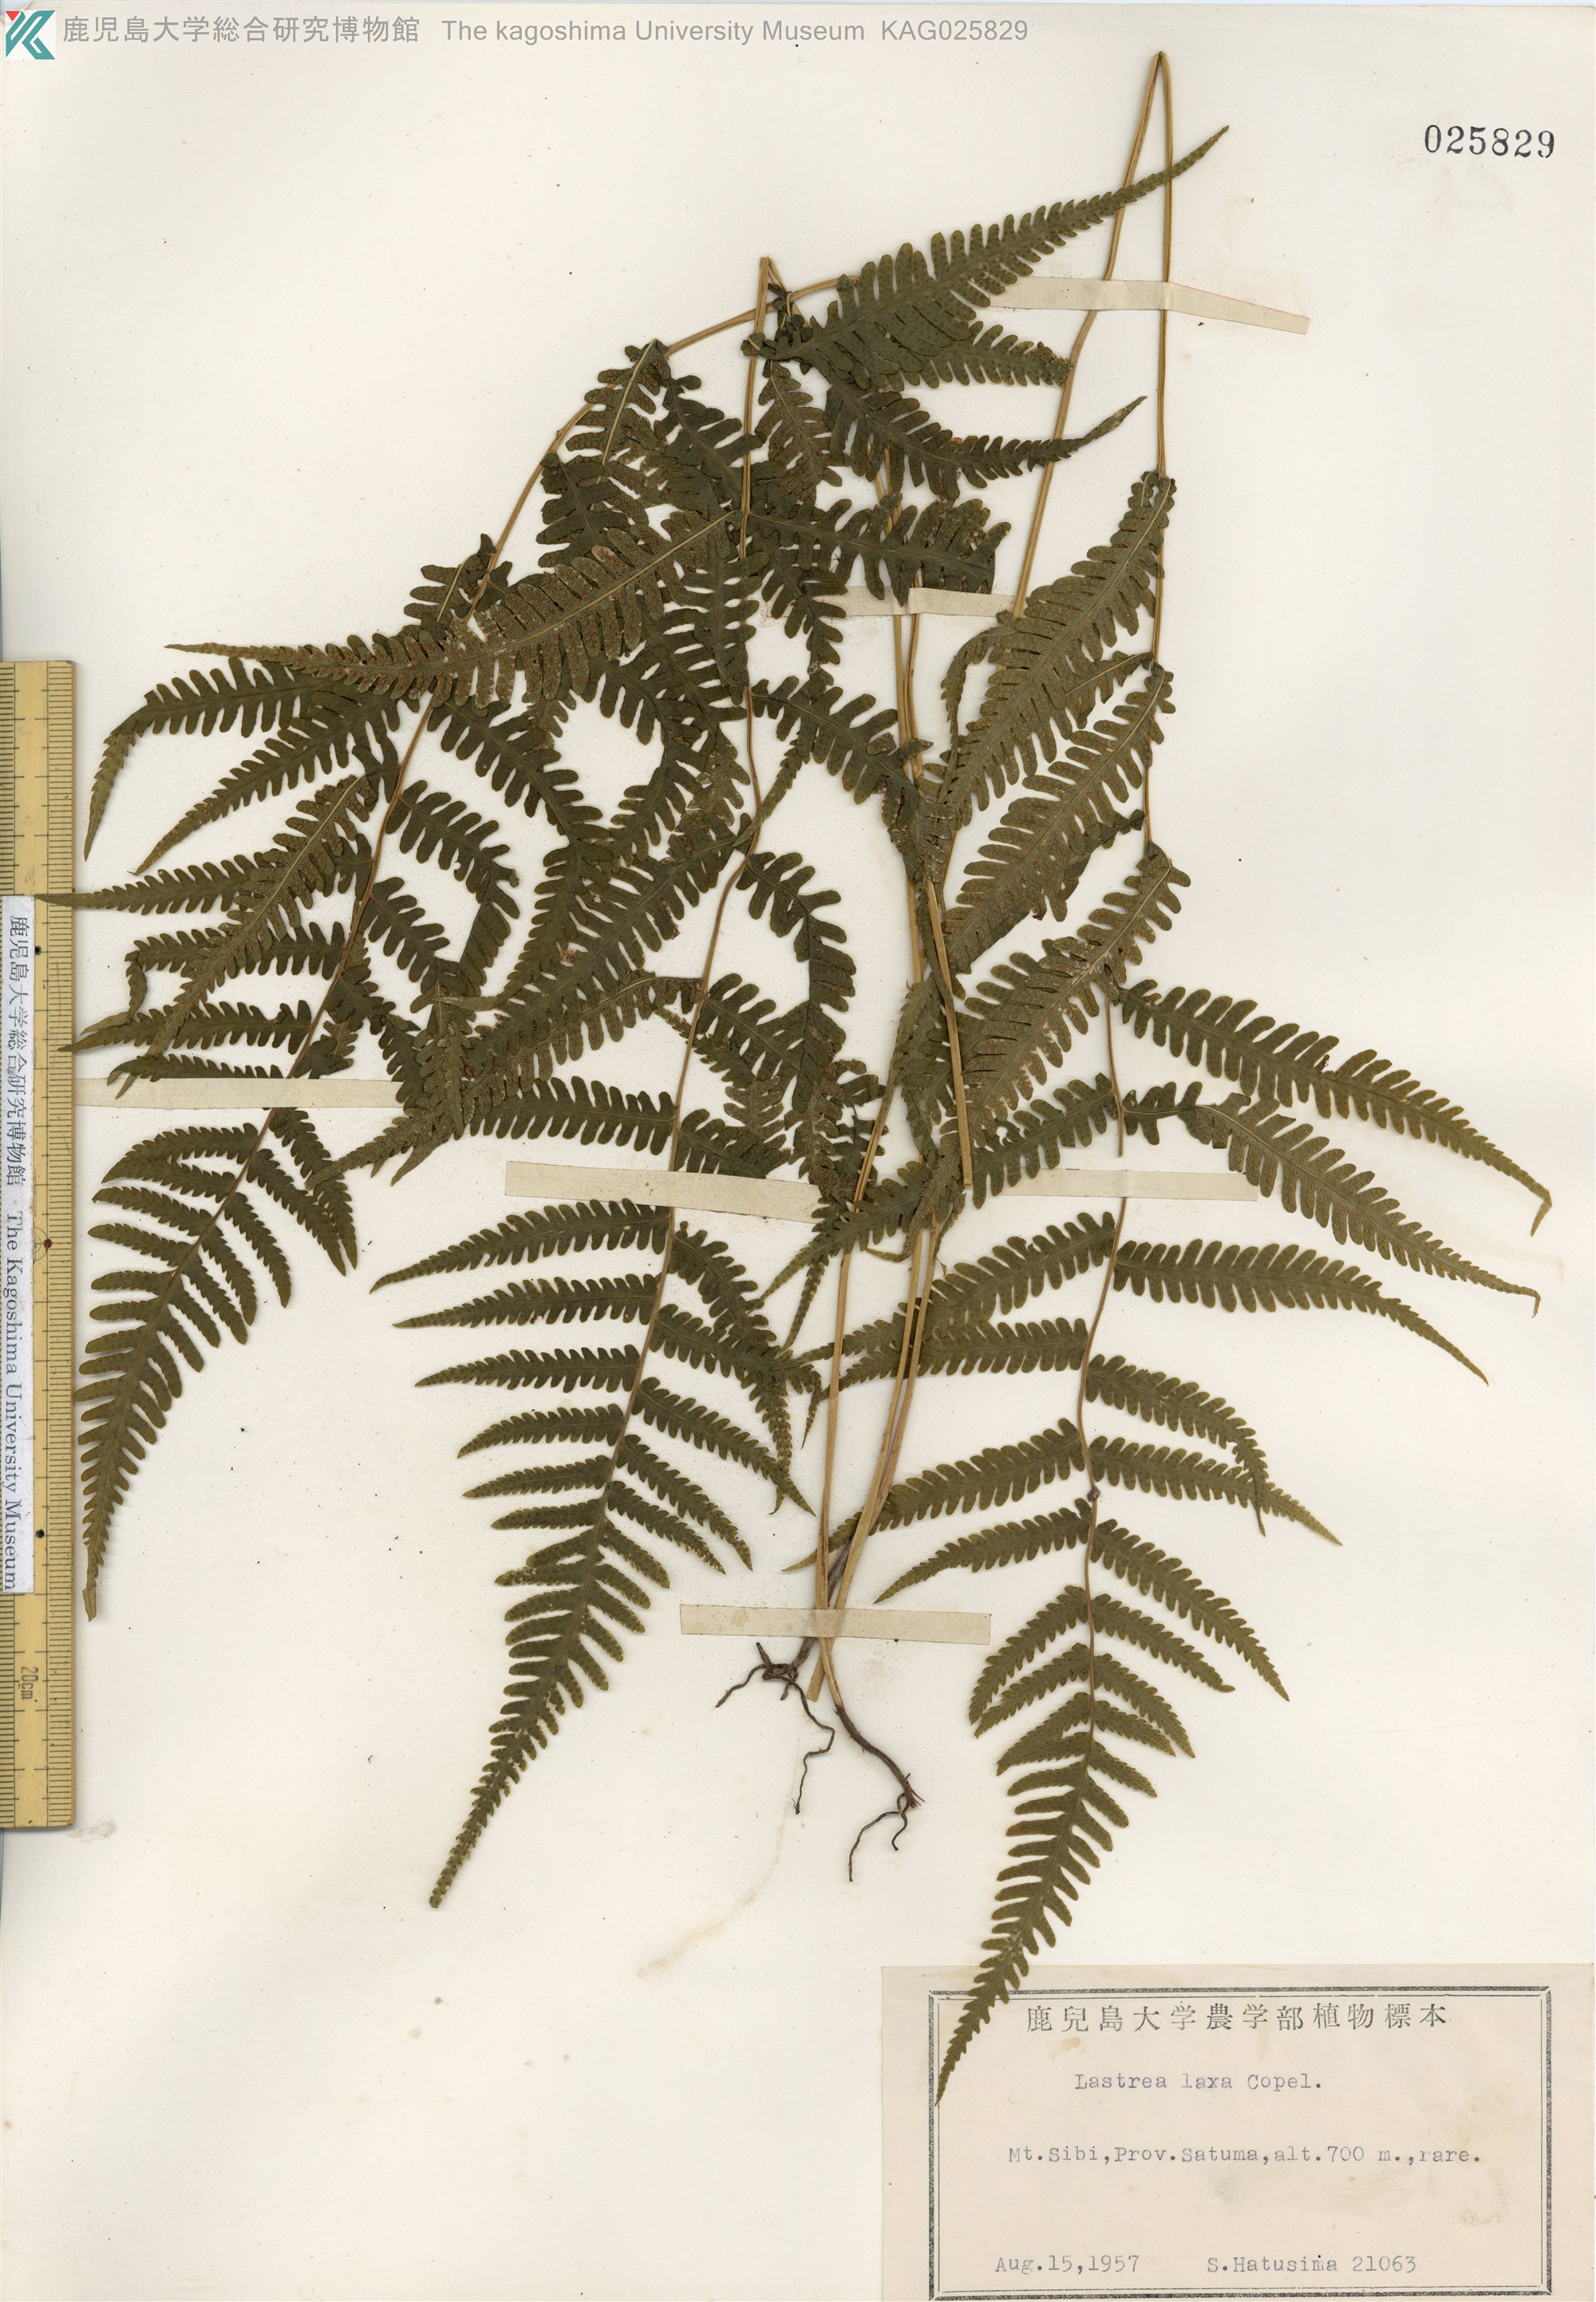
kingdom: Plantae
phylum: Tracheophyta
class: Polypodiopsida
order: Polypodiales
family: Thelypteridaceae
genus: Metathelypteris
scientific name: Metathelypteris laxa
